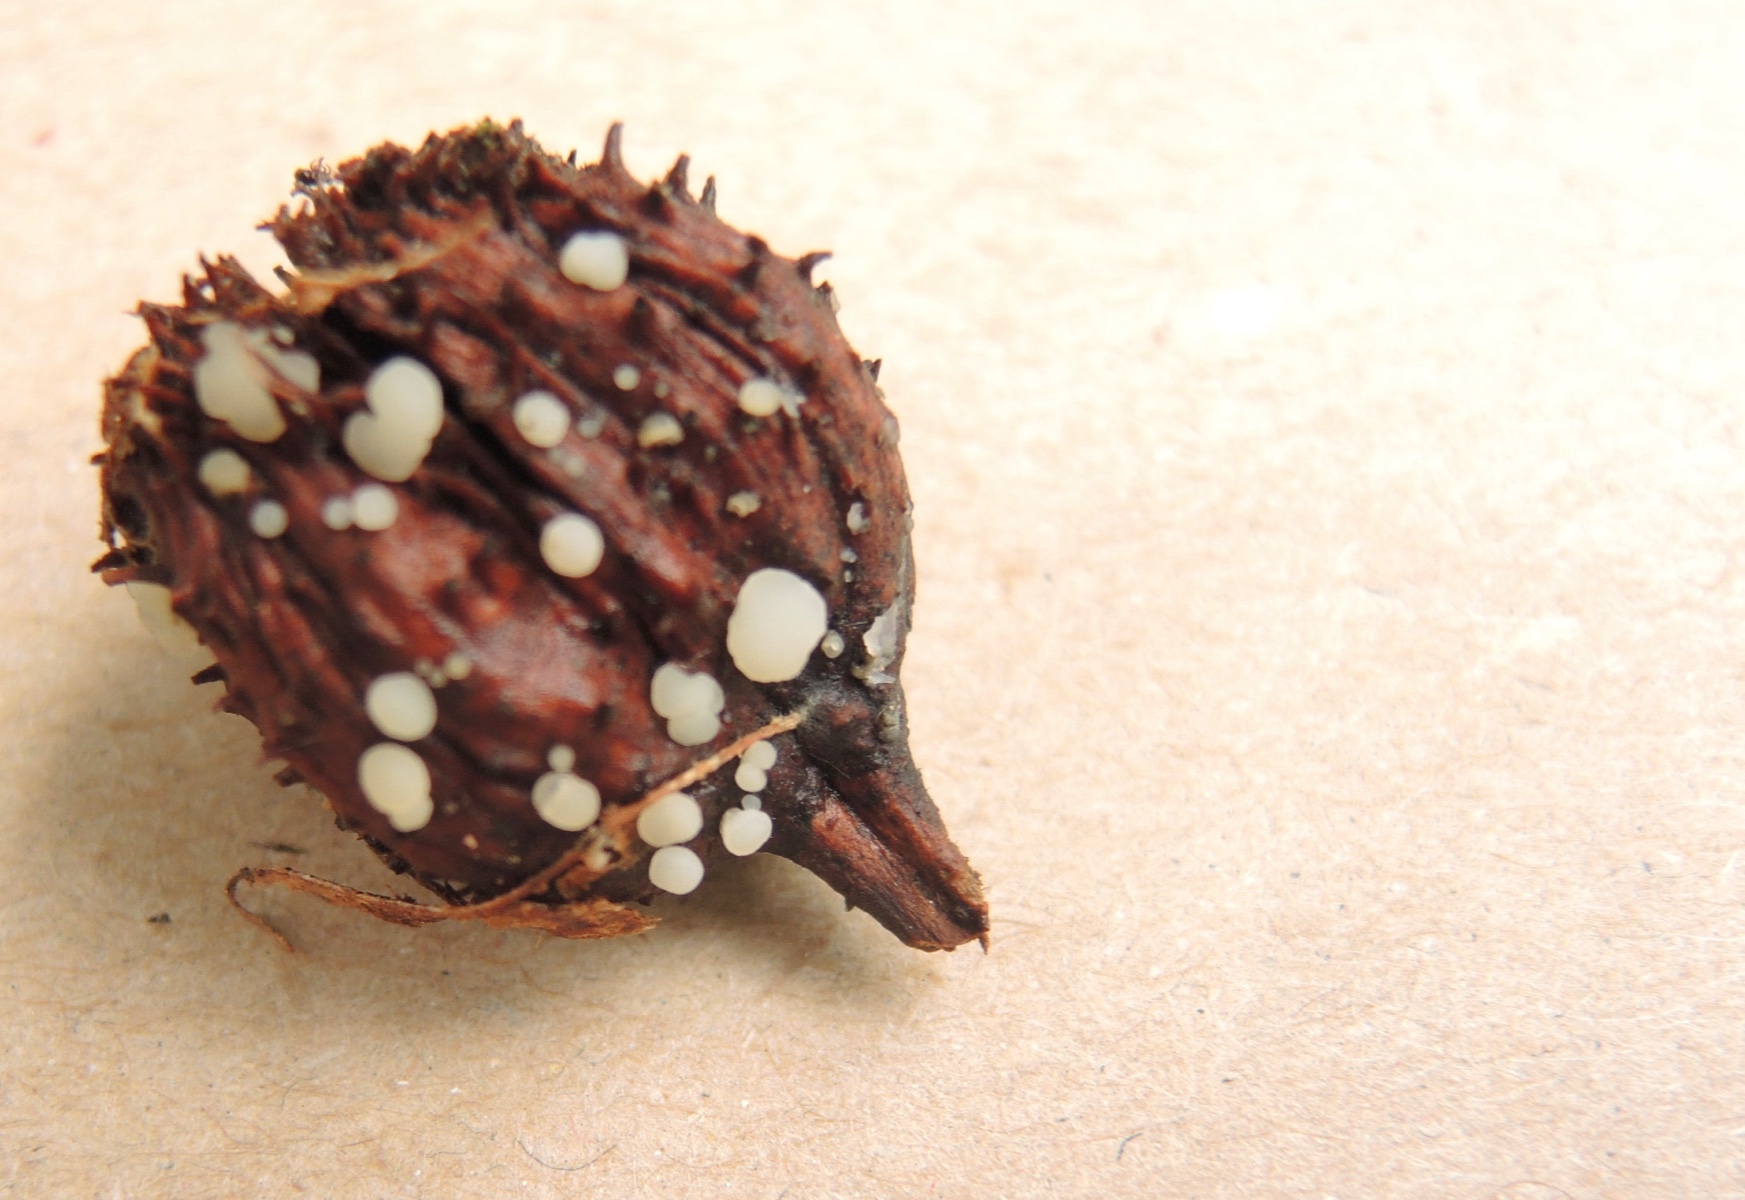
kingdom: Fungi
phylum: Ascomycota
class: Leotiomycetes
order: Helotiales
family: Helotiaceae
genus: Hymenoscyphus
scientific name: Hymenoscyphus fagineus
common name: vellugtende stilkskive
